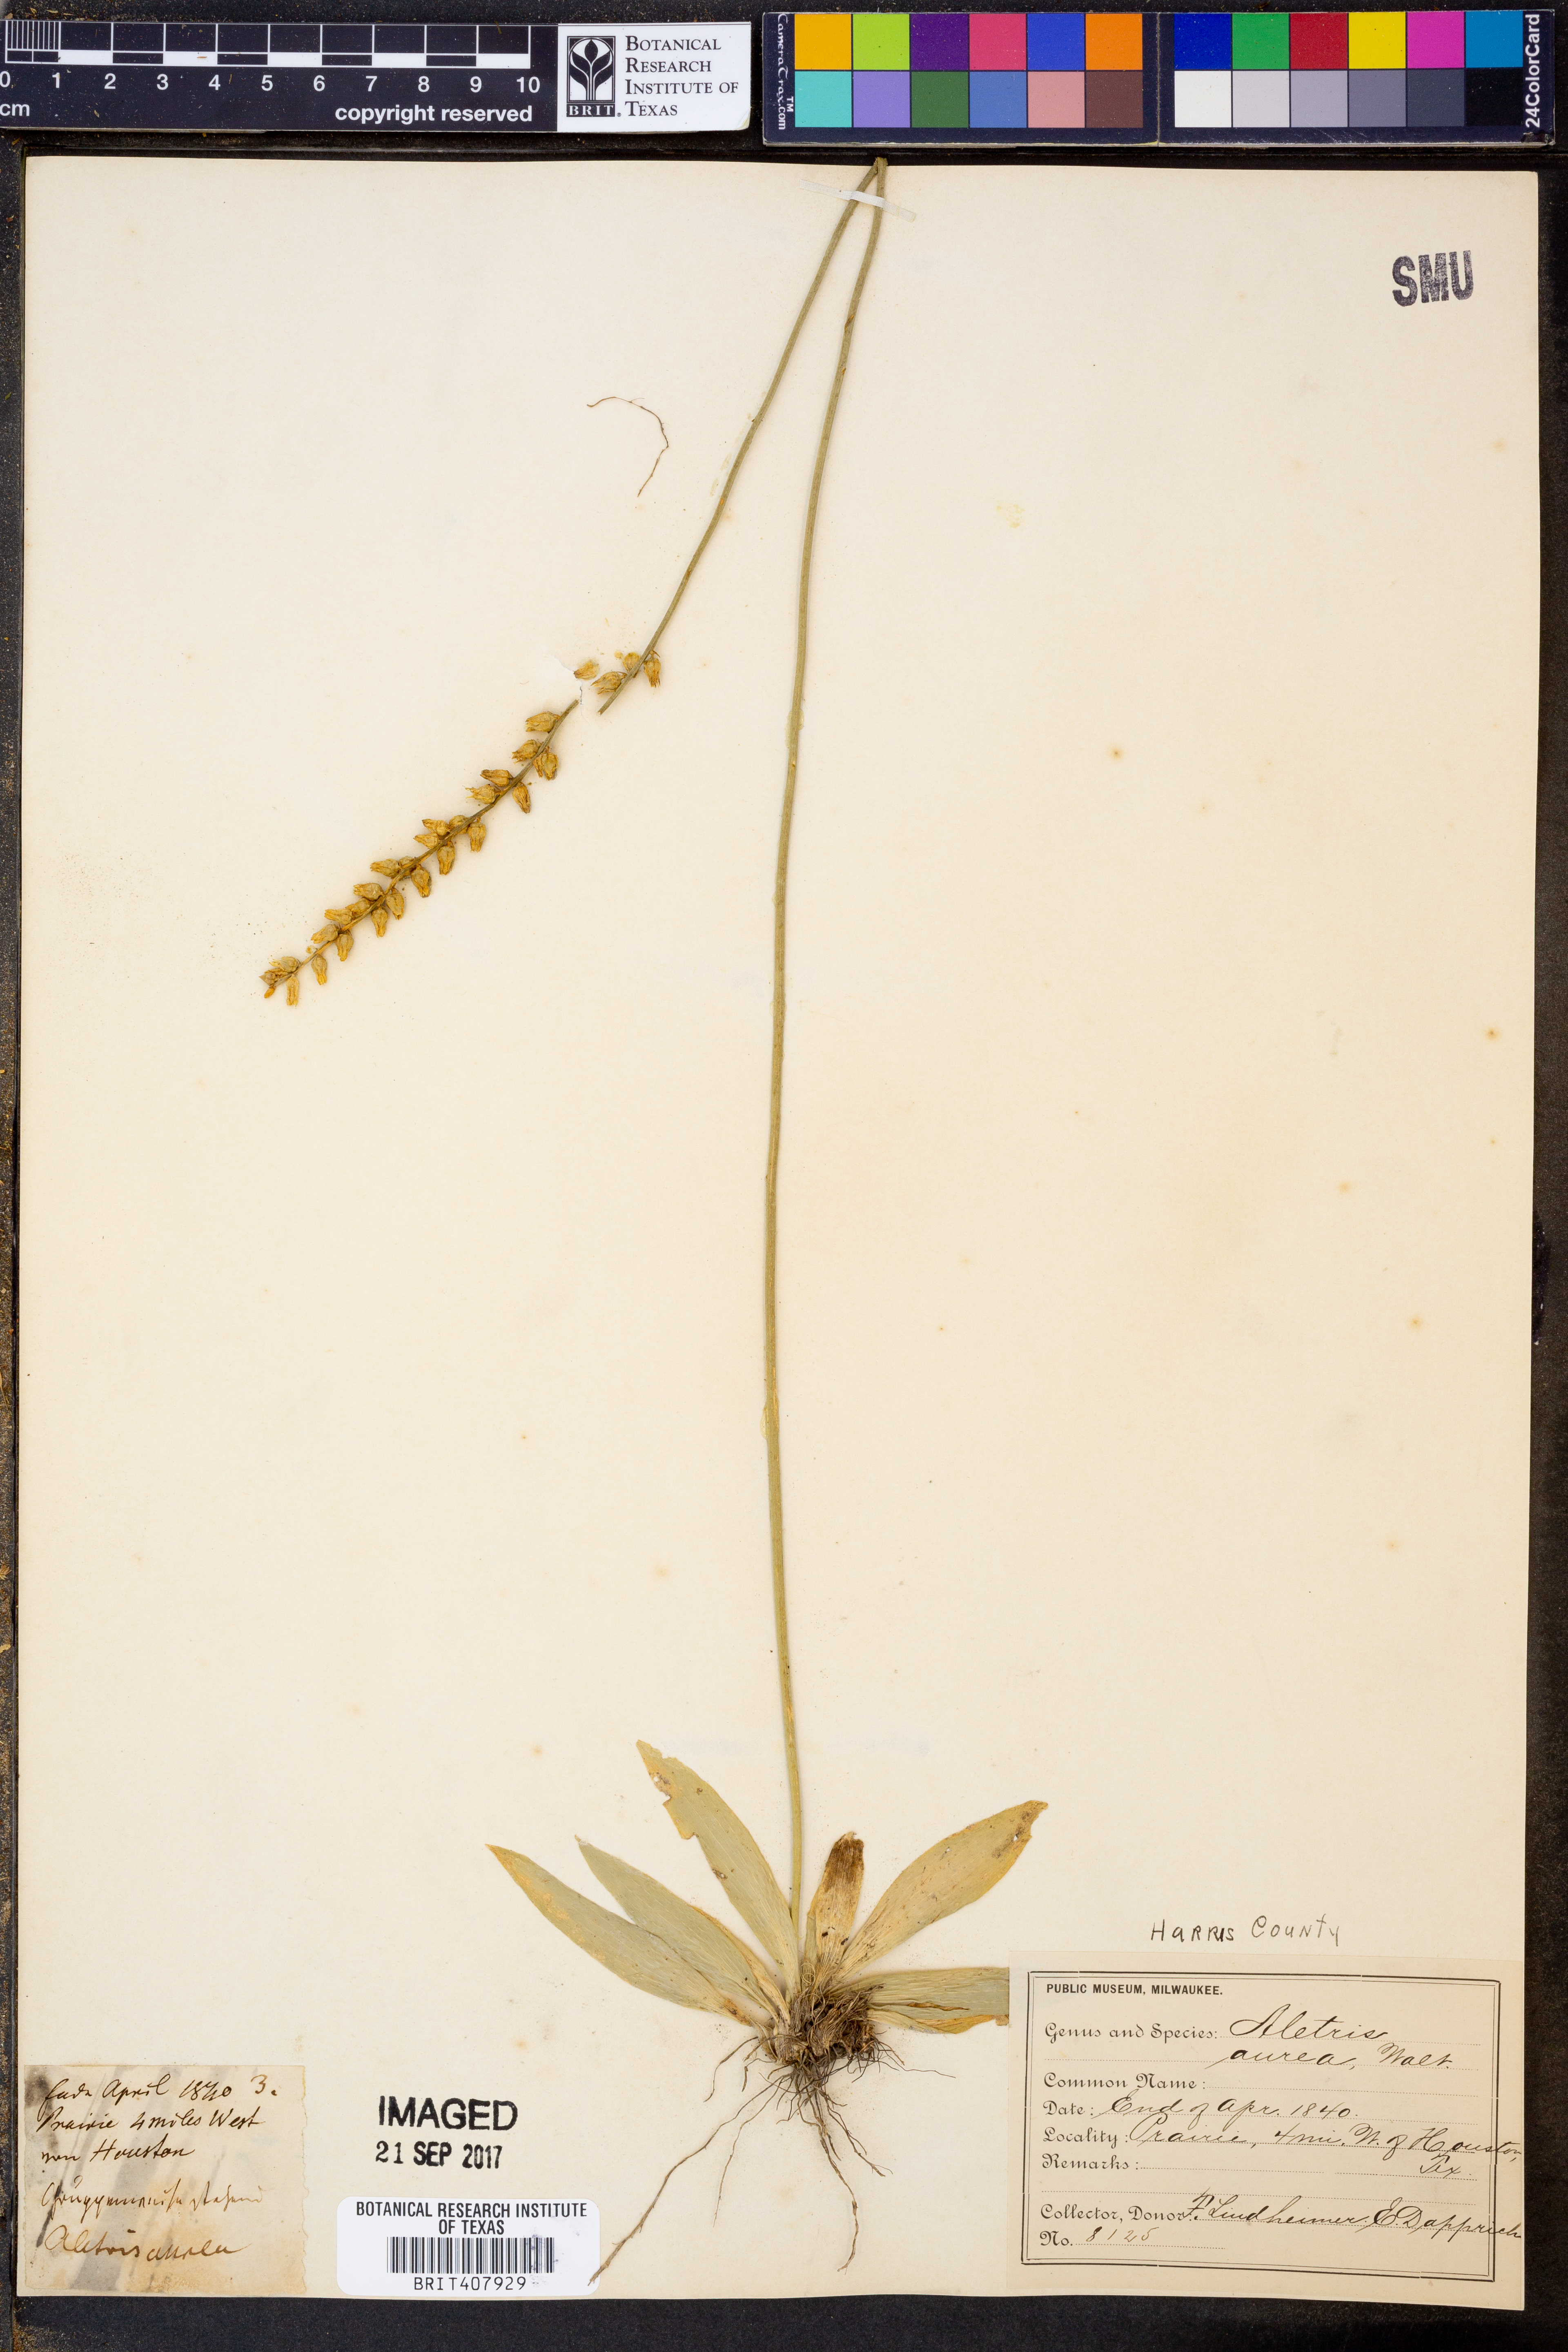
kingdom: Plantae
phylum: Tracheophyta
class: Liliopsida
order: Dioscoreales
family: Nartheciaceae
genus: Aletris
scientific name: Aletris aurea
